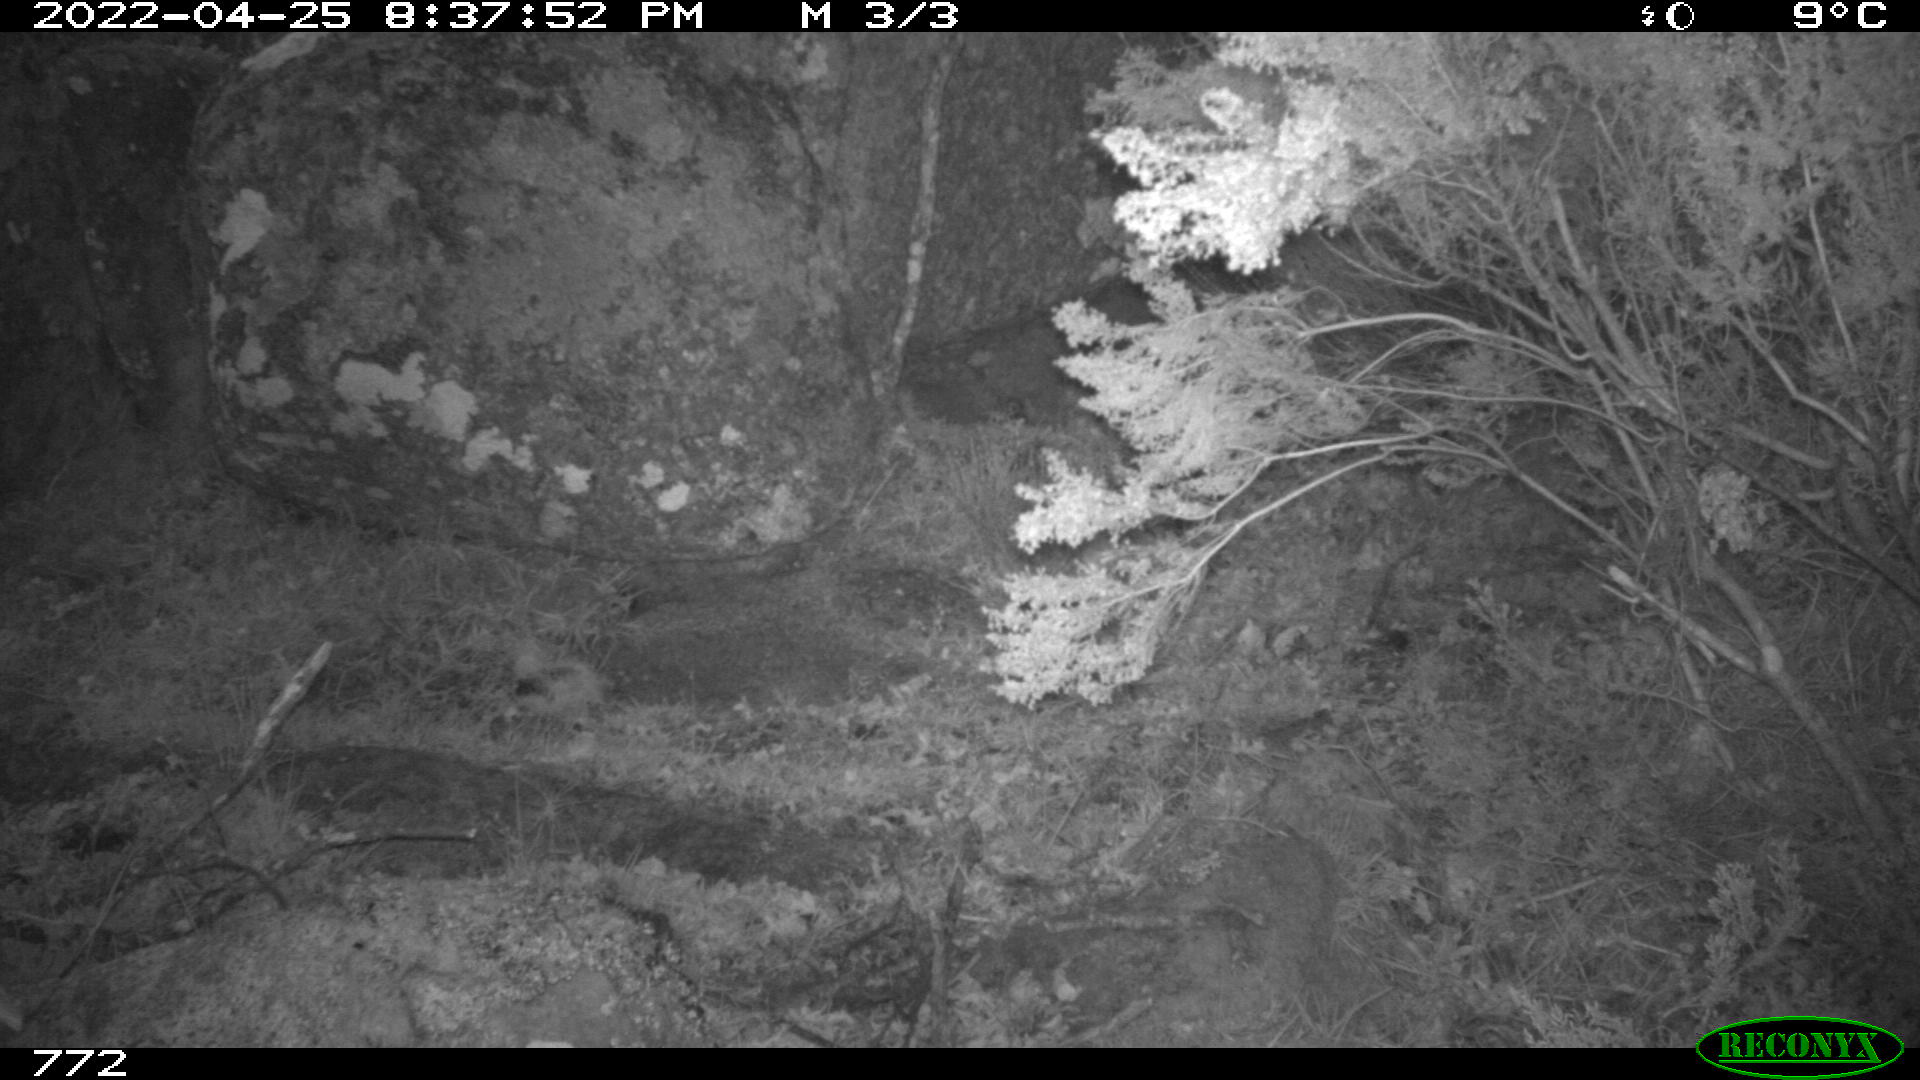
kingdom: Animalia
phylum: Chordata
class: Mammalia
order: Perissodactyla
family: Equidae
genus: Equus
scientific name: Equus caballus
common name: Horse
